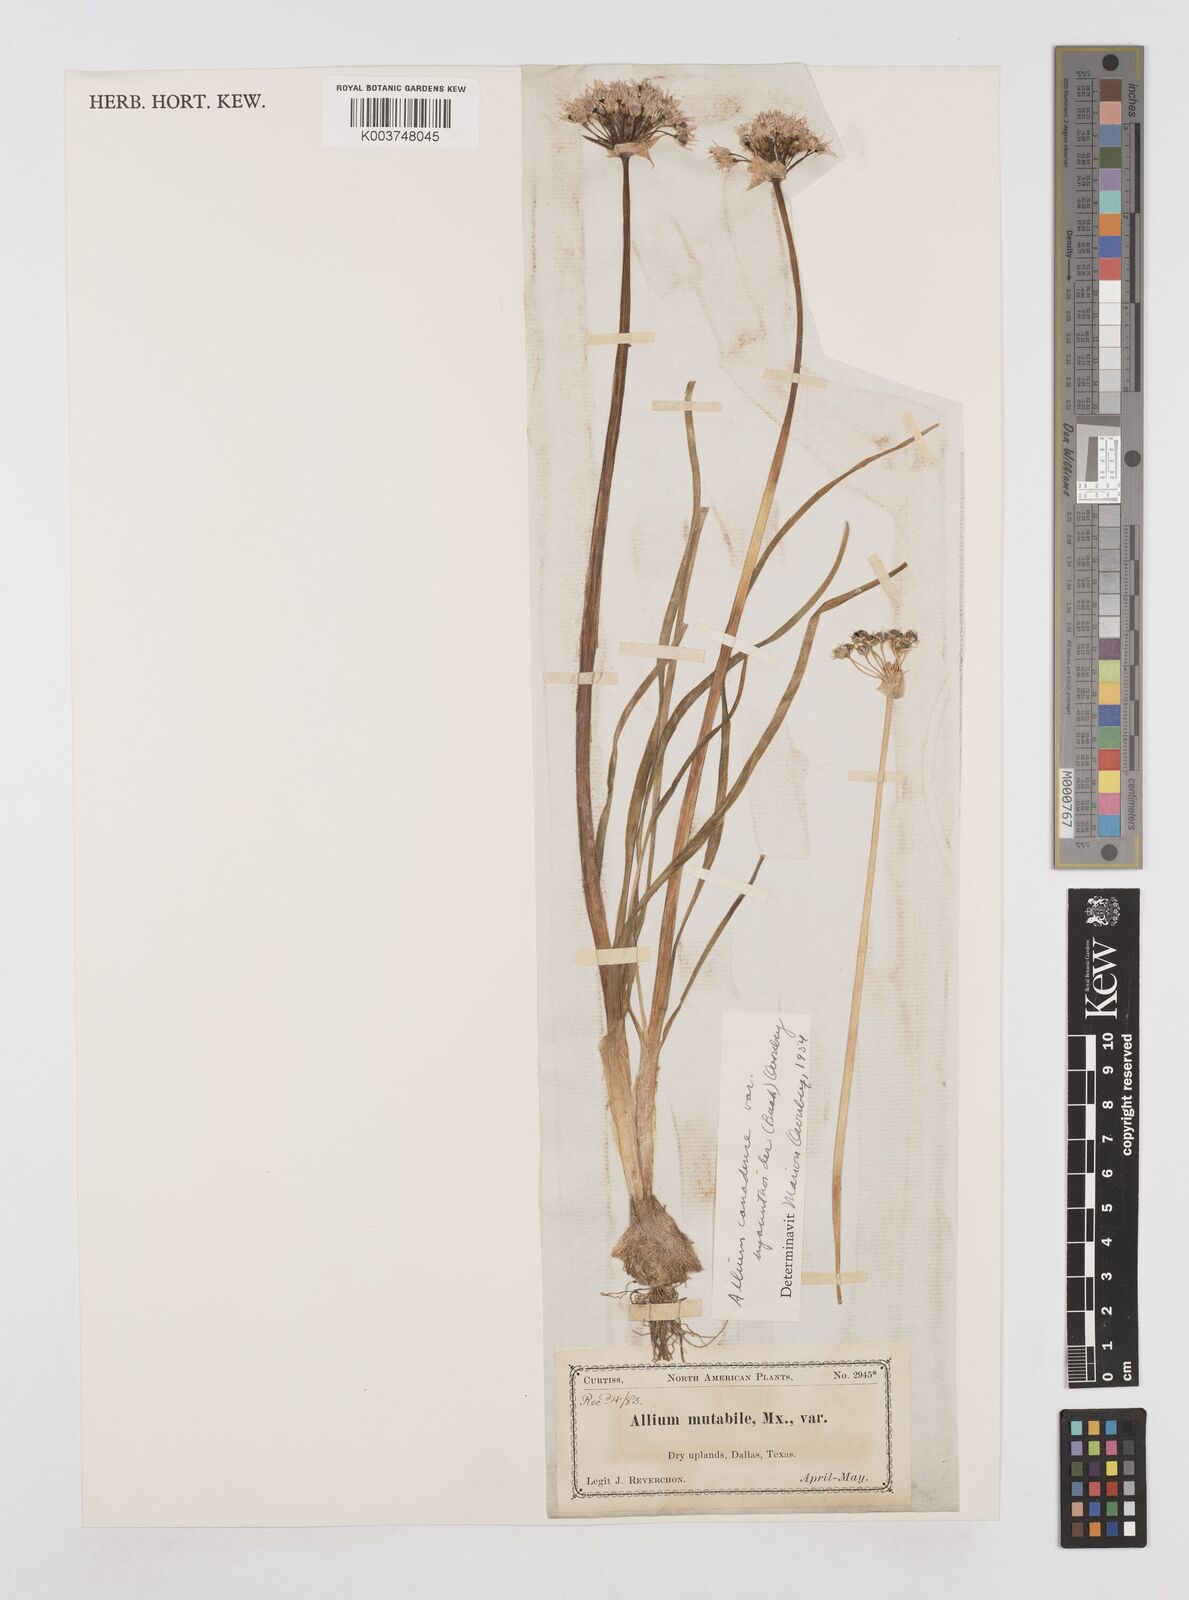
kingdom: Plantae
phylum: Tracheophyta
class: Liliopsida
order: Asparagales
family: Amaryllidaceae
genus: Allium
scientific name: Allium canadense
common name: Meadow garlic
